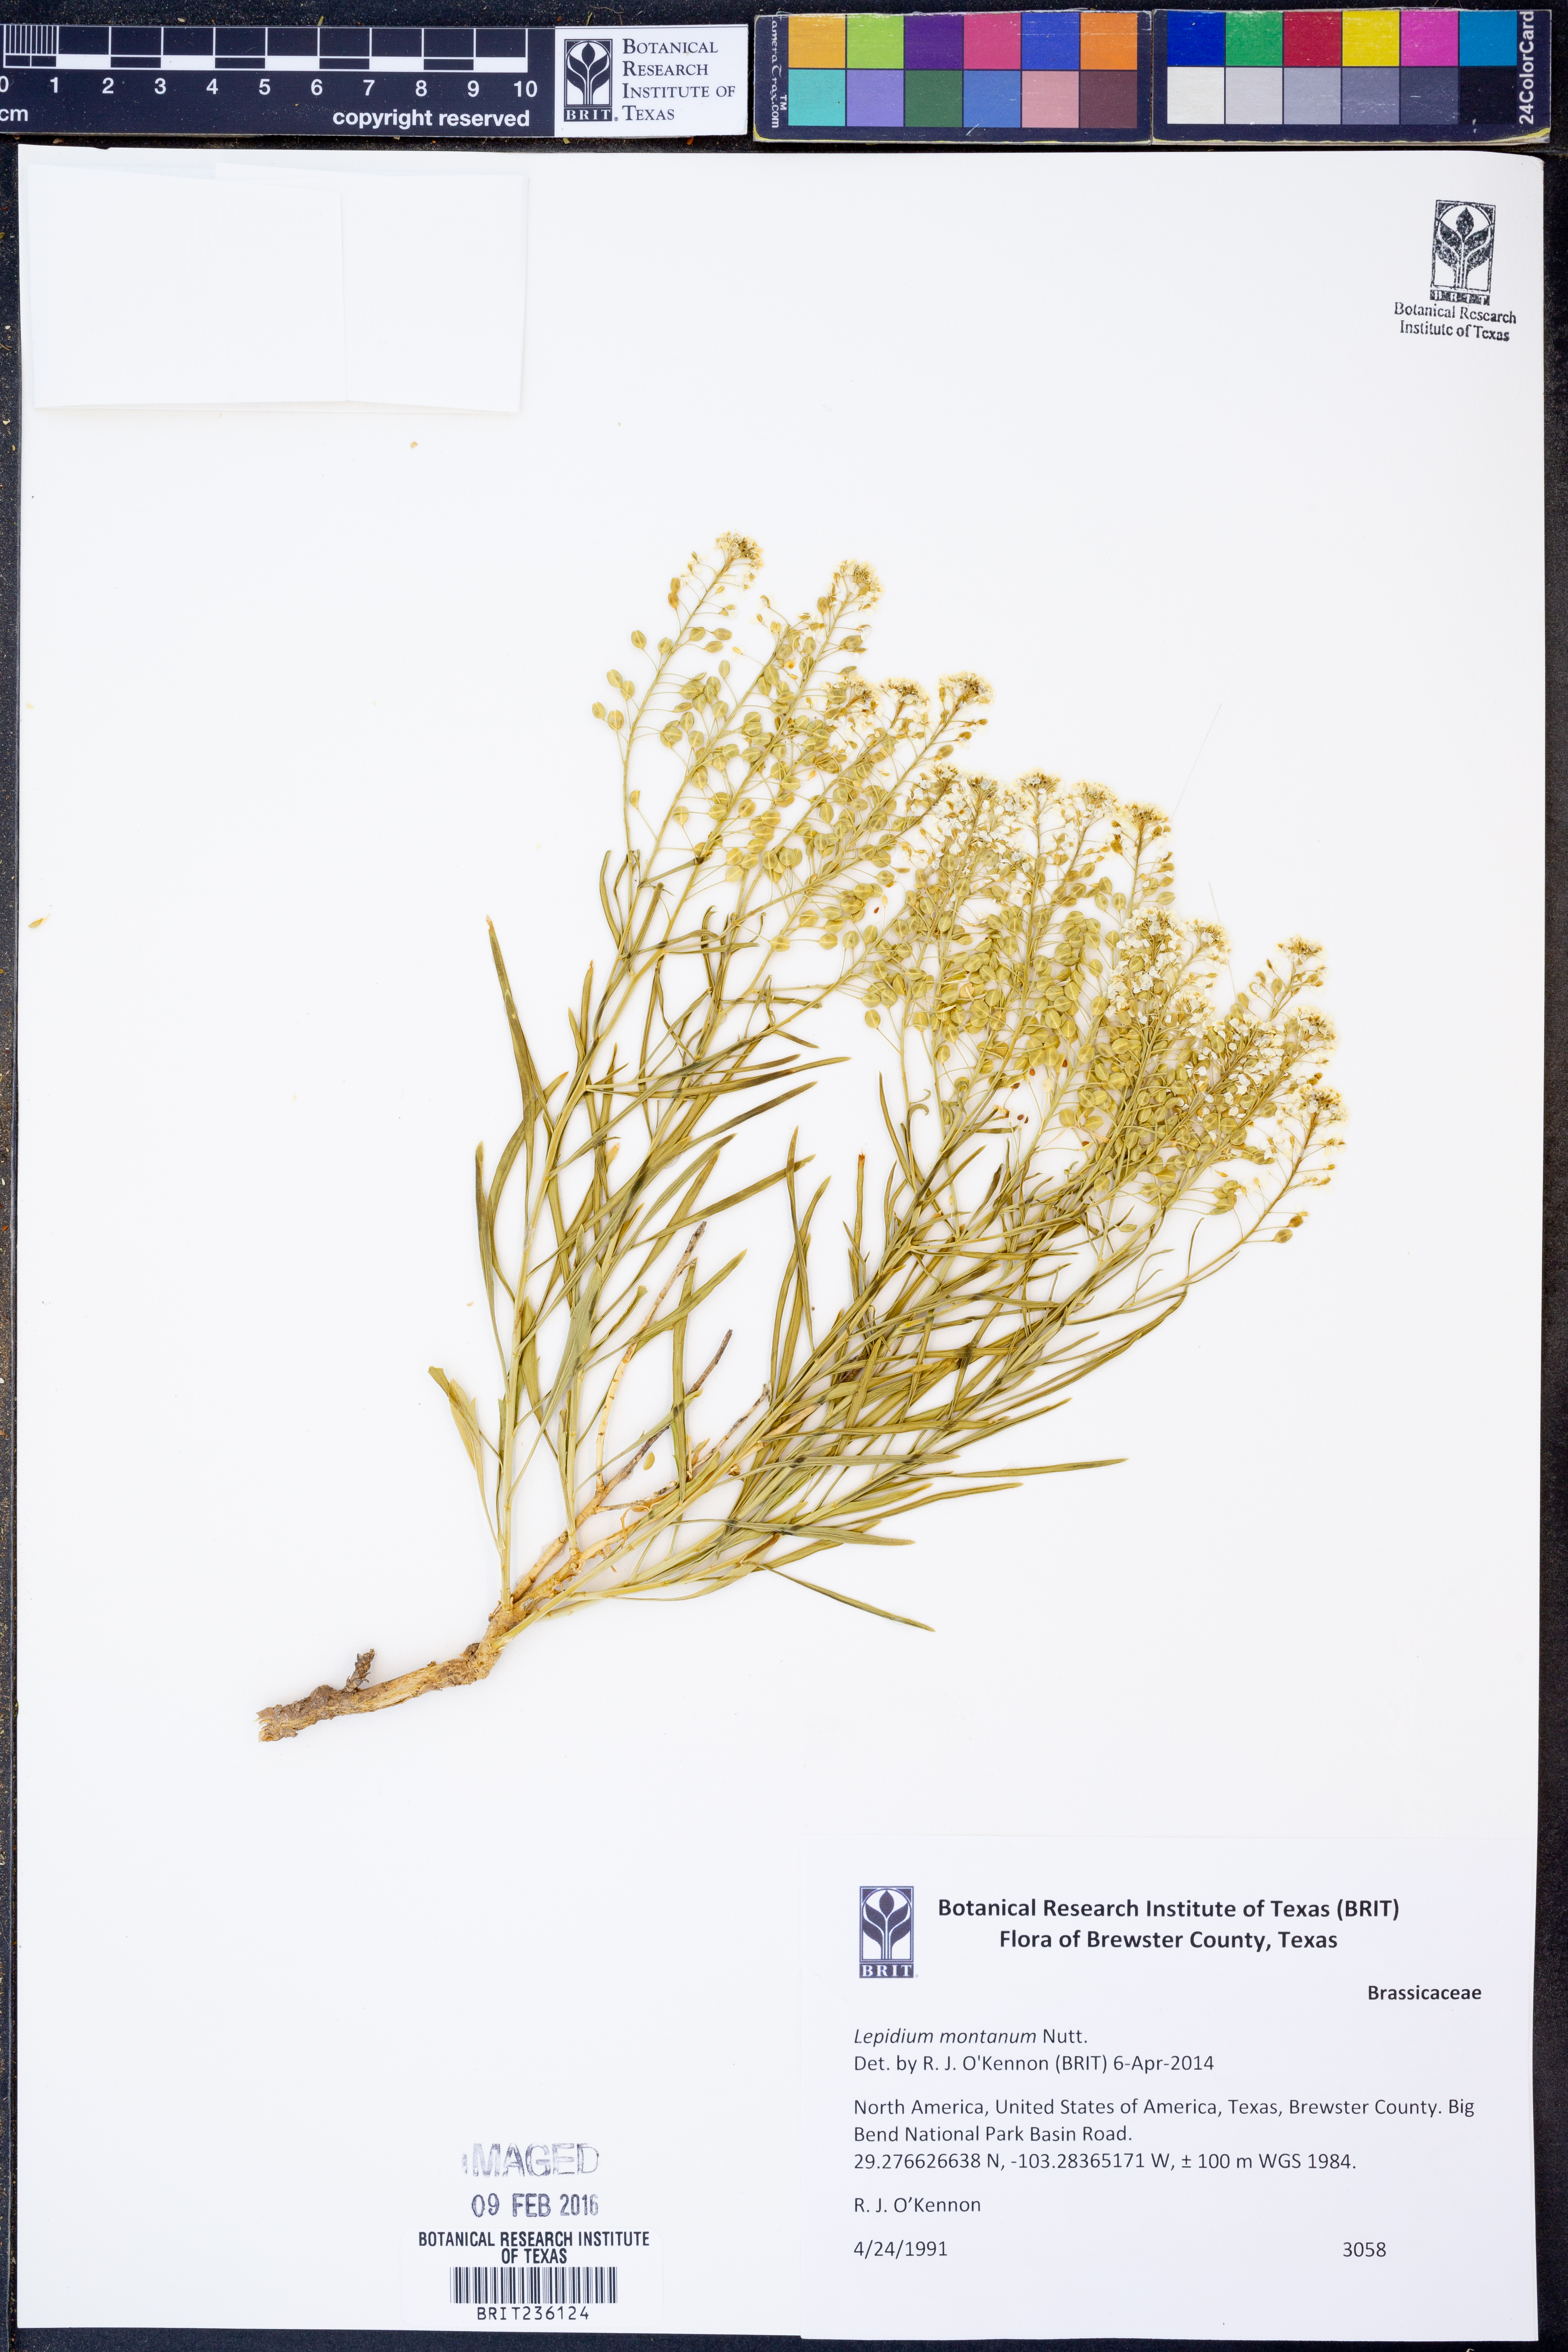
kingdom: Plantae
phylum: Tracheophyta
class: Magnoliopsida
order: Brassicales
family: Brassicaceae
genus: Lepidium
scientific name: Lepidium montanum
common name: Mountain pepperplant
